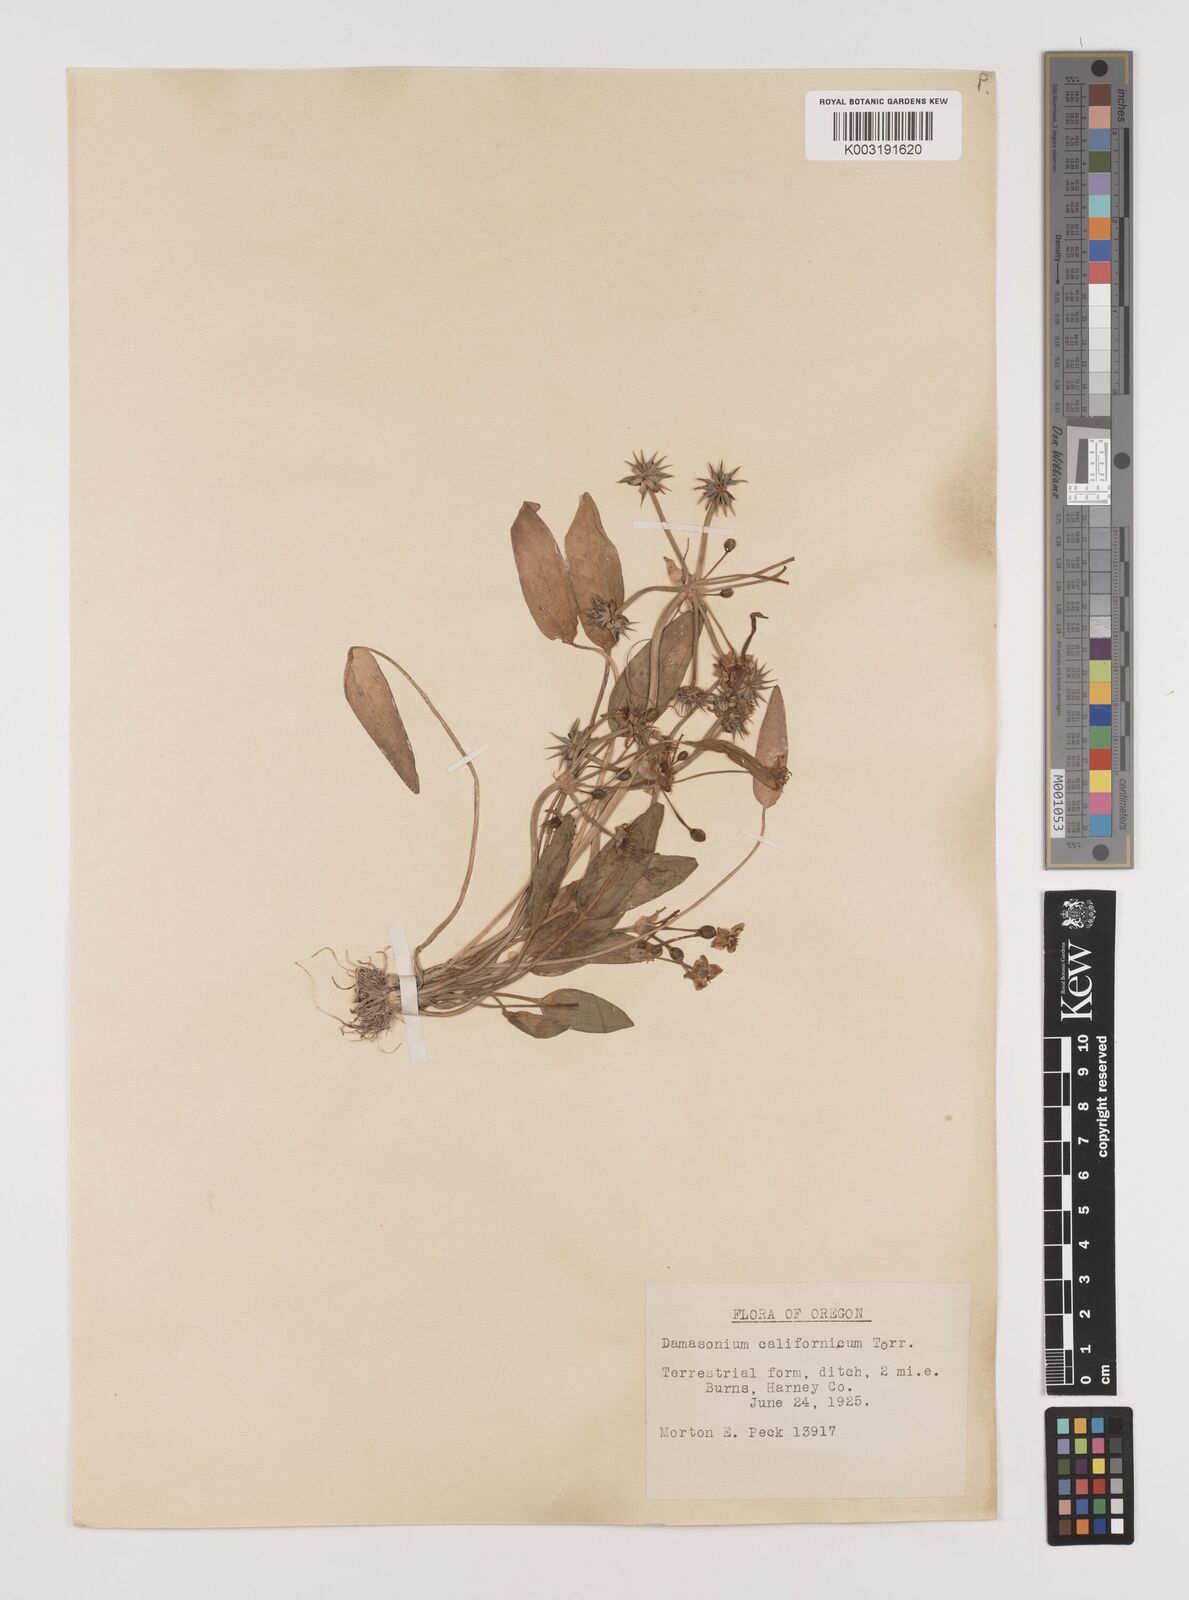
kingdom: Plantae
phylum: Tracheophyta
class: Liliopsida
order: Alismatales
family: Alismataceae
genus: Damasonium
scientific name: Damasonium
